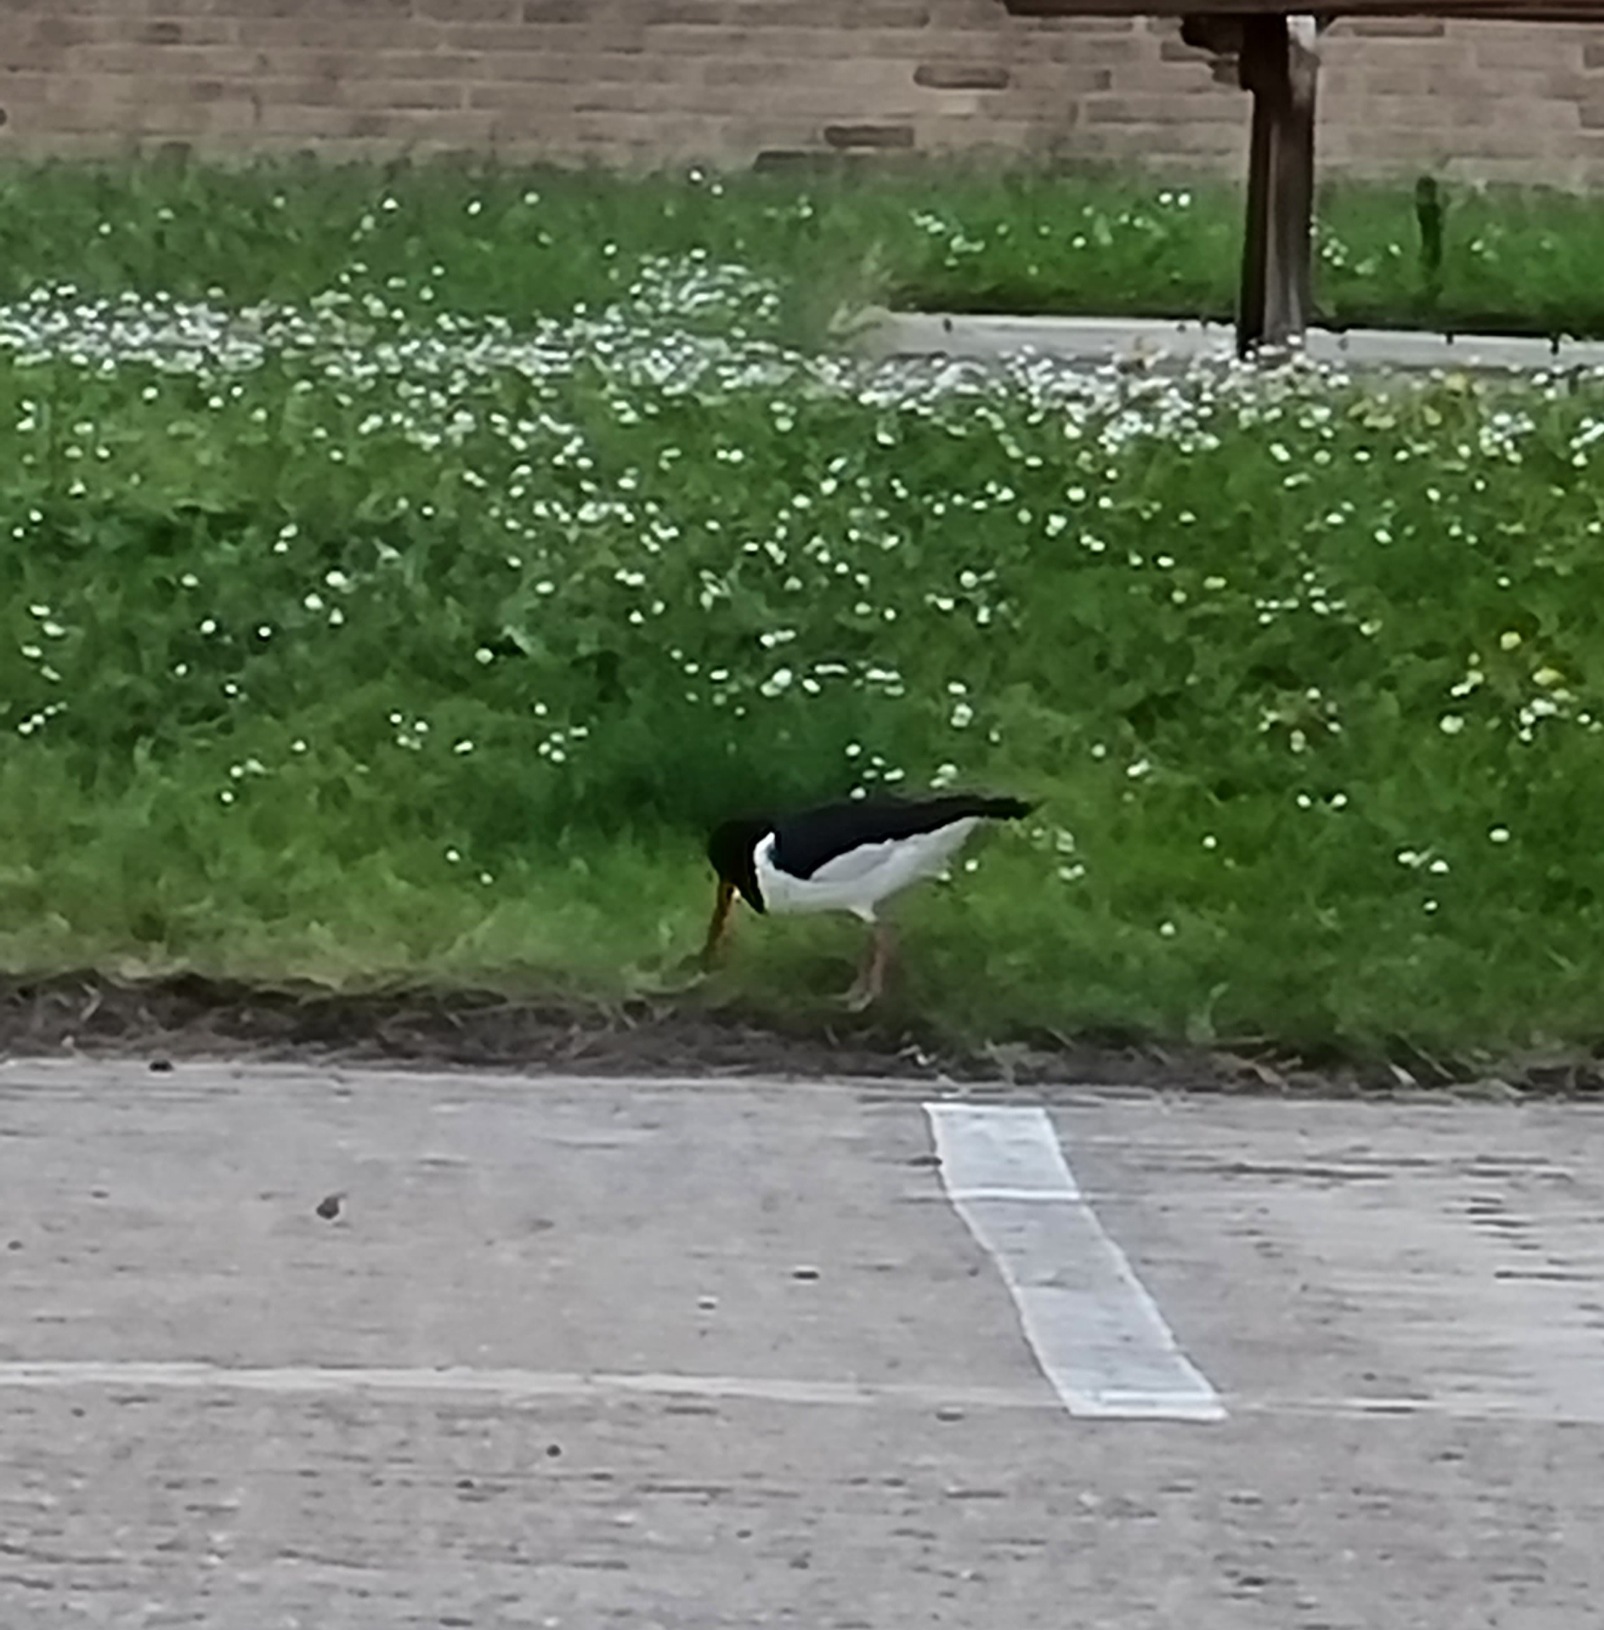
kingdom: Animalia
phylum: Chordata
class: Aves
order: Charadriiformes
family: Haematopodidae
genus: Haematopus
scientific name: Haematopus ostralegus
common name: Strandskade
